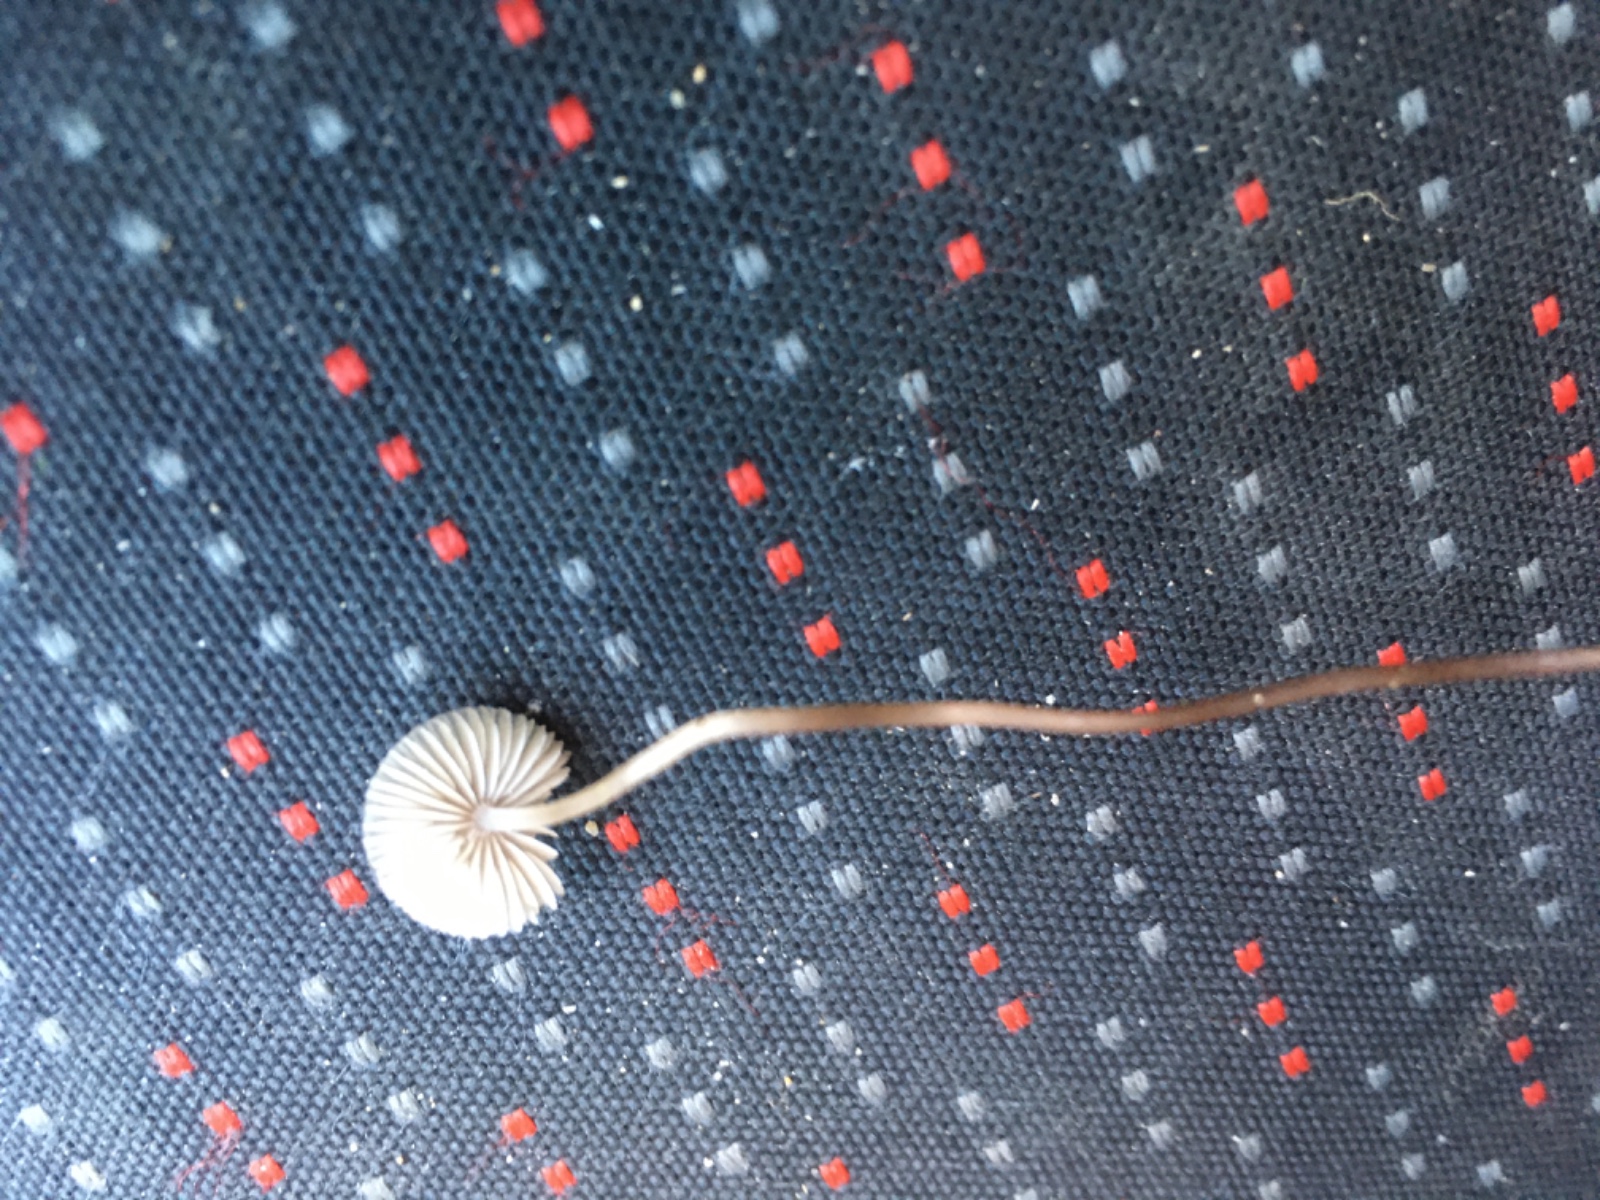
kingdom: Fungi
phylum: Basidiomycota
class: Agaricomycetes
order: Agaricales
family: Mycenaceae
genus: Mycena
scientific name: Mycena
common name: huesvamp
